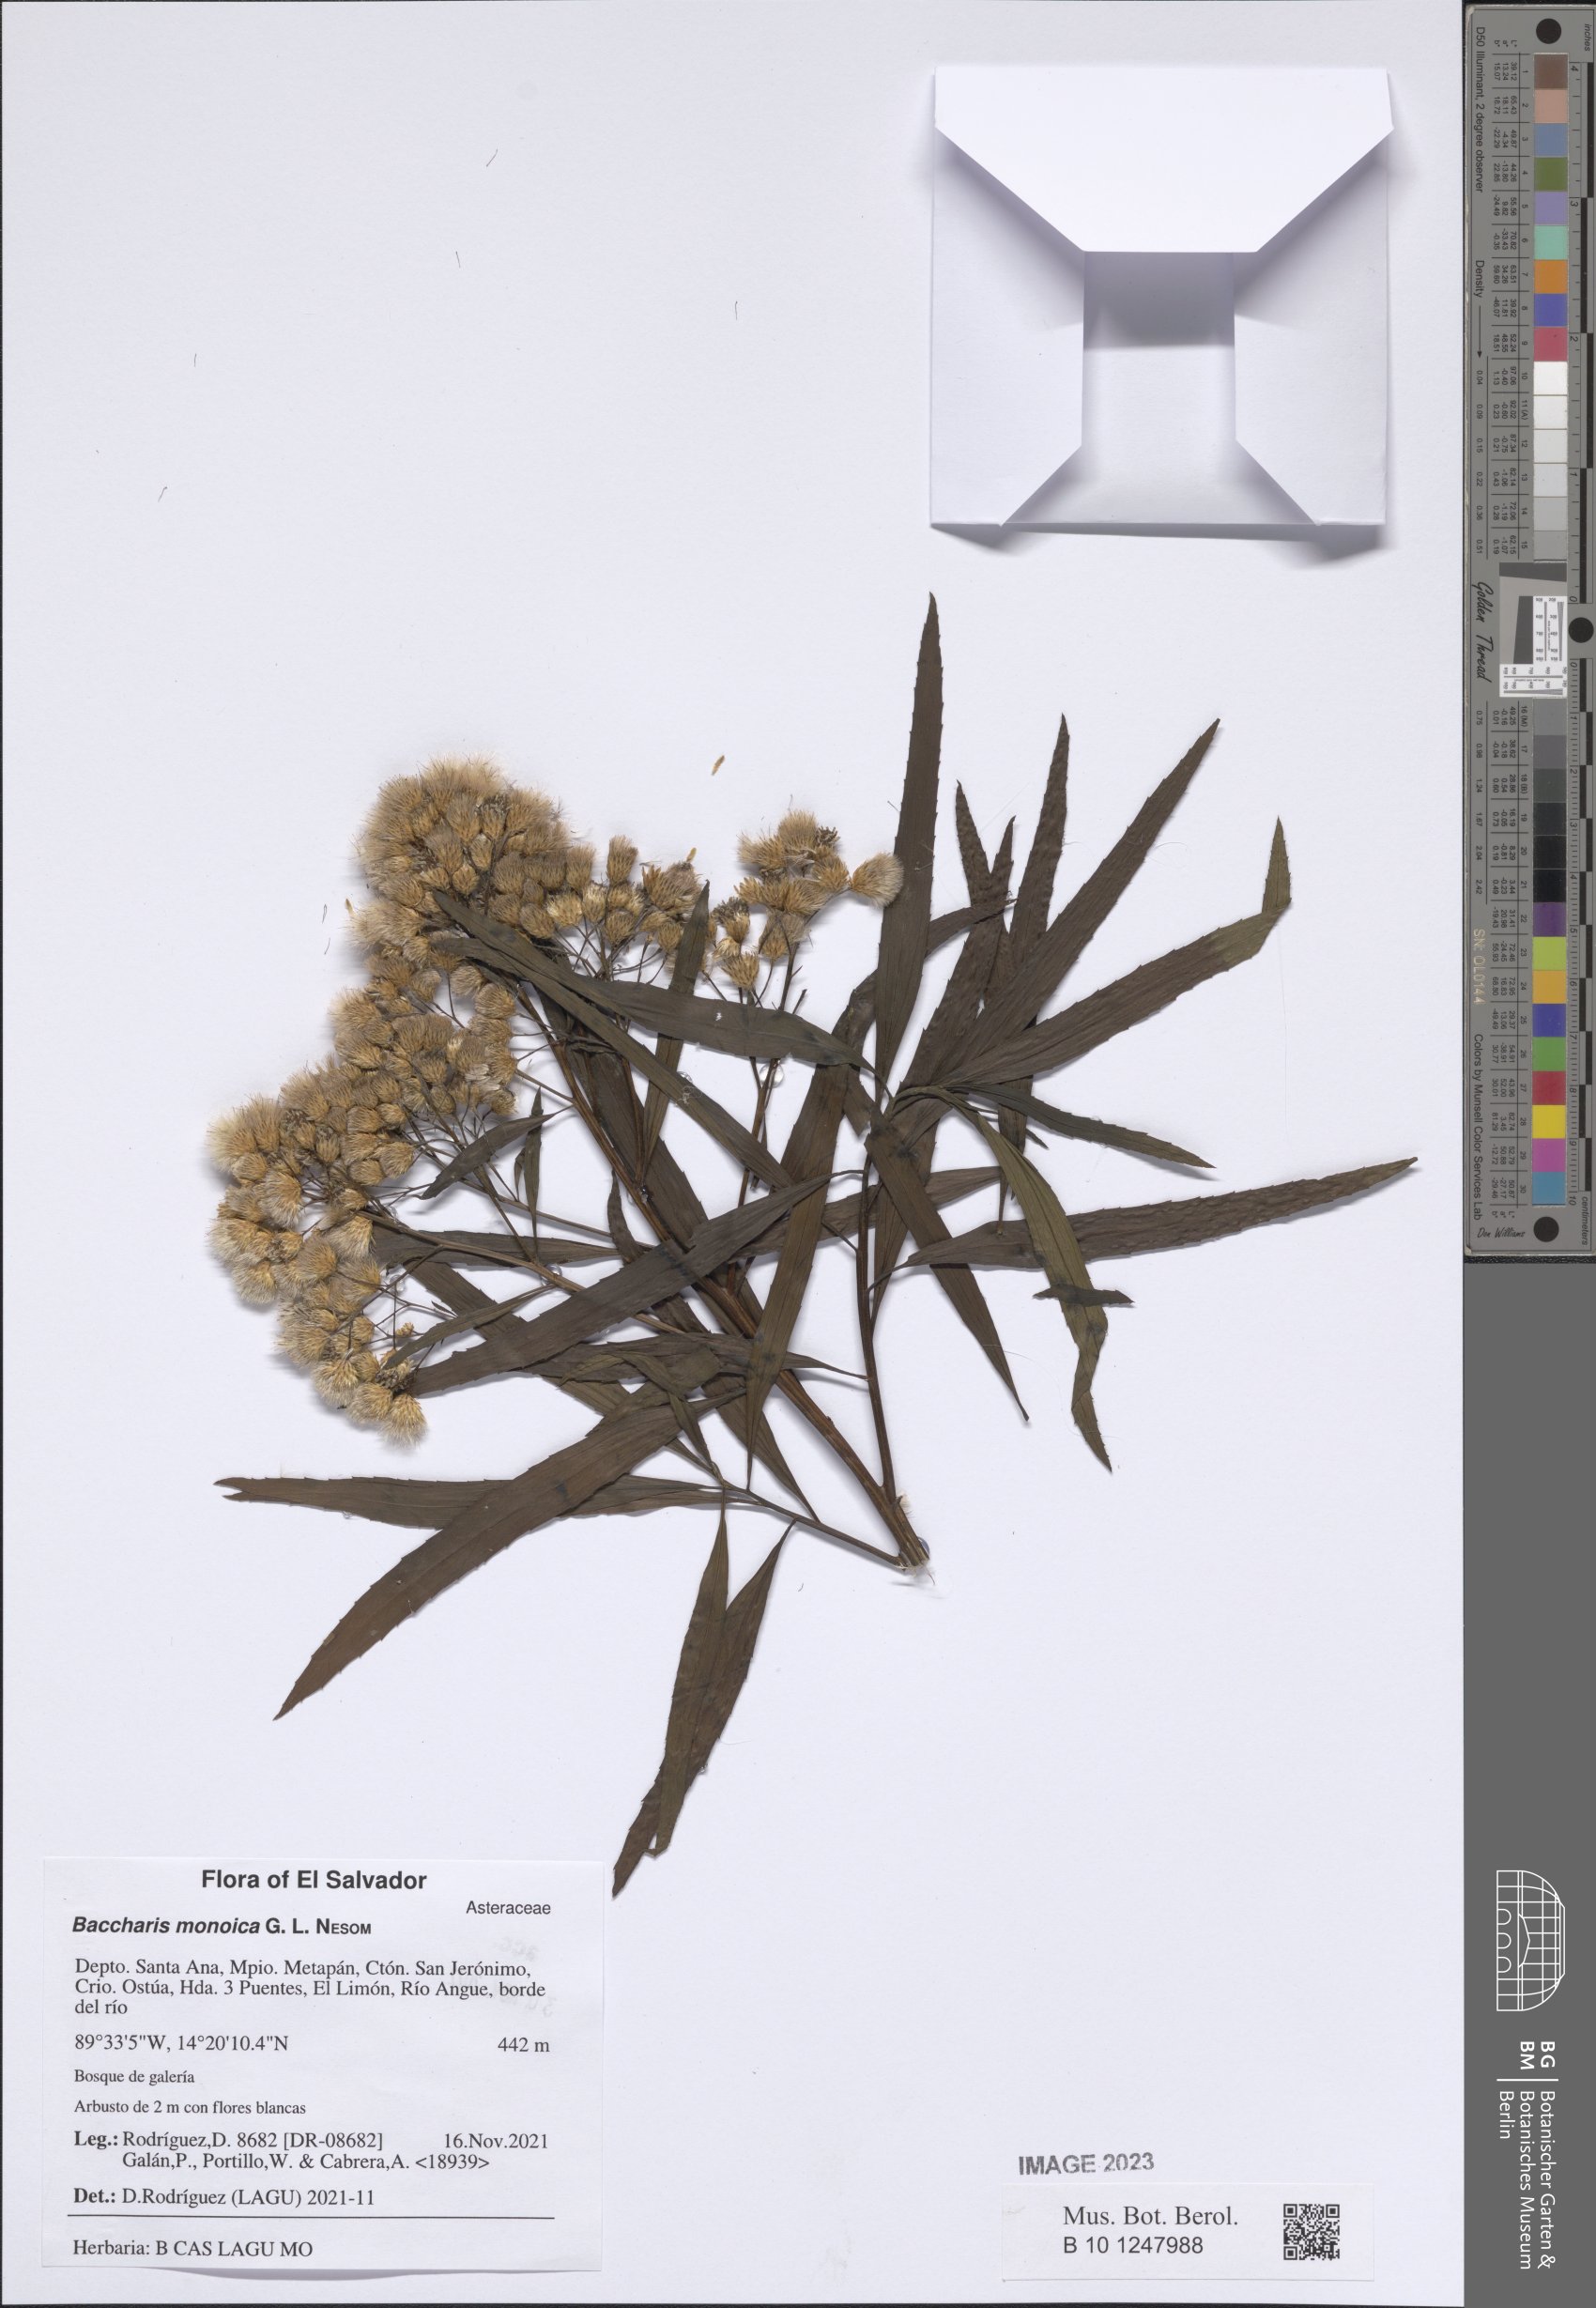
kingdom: Plantae
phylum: Tracheophyta
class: Magnoliopsida
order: Asterales
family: Asteraceae
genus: Baccharis
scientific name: Baccharis salicifolia
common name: Sticky baccharis
